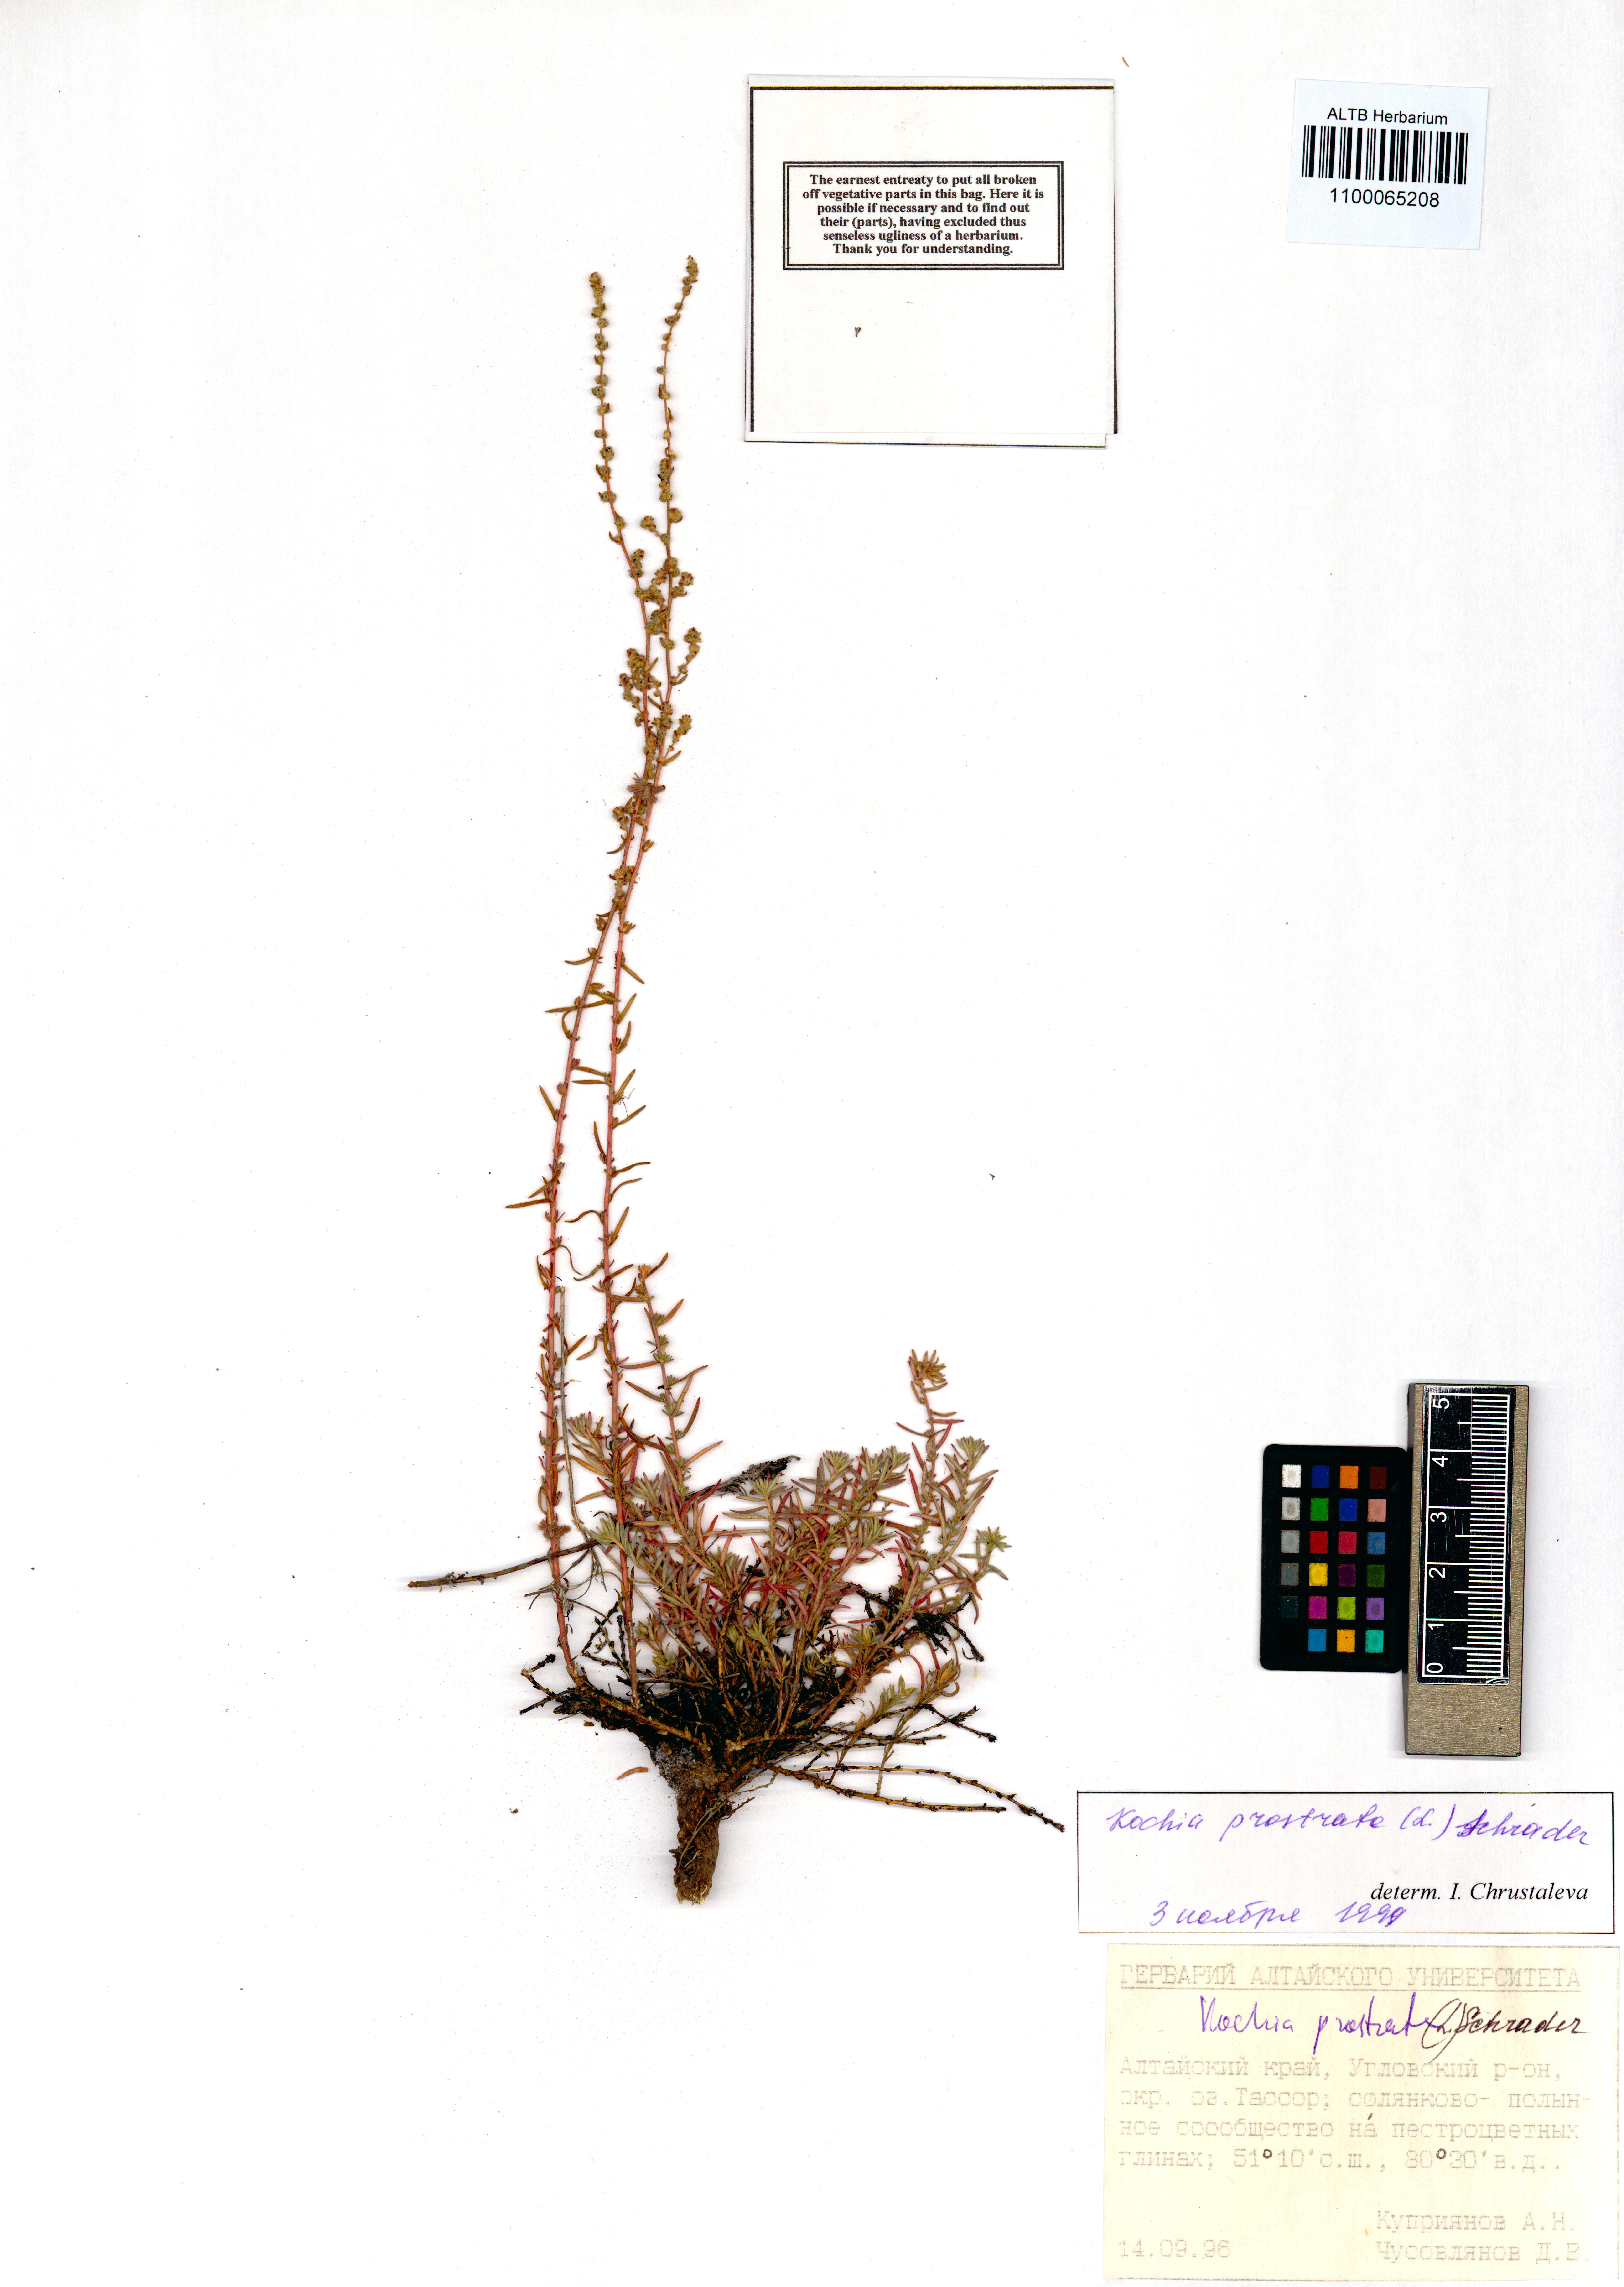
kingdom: Plantae
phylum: Tracheophyta
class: Magnoliopsida
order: Caryophyllales
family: Amaranthaceae
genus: Bassia
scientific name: Bassia prostrata
